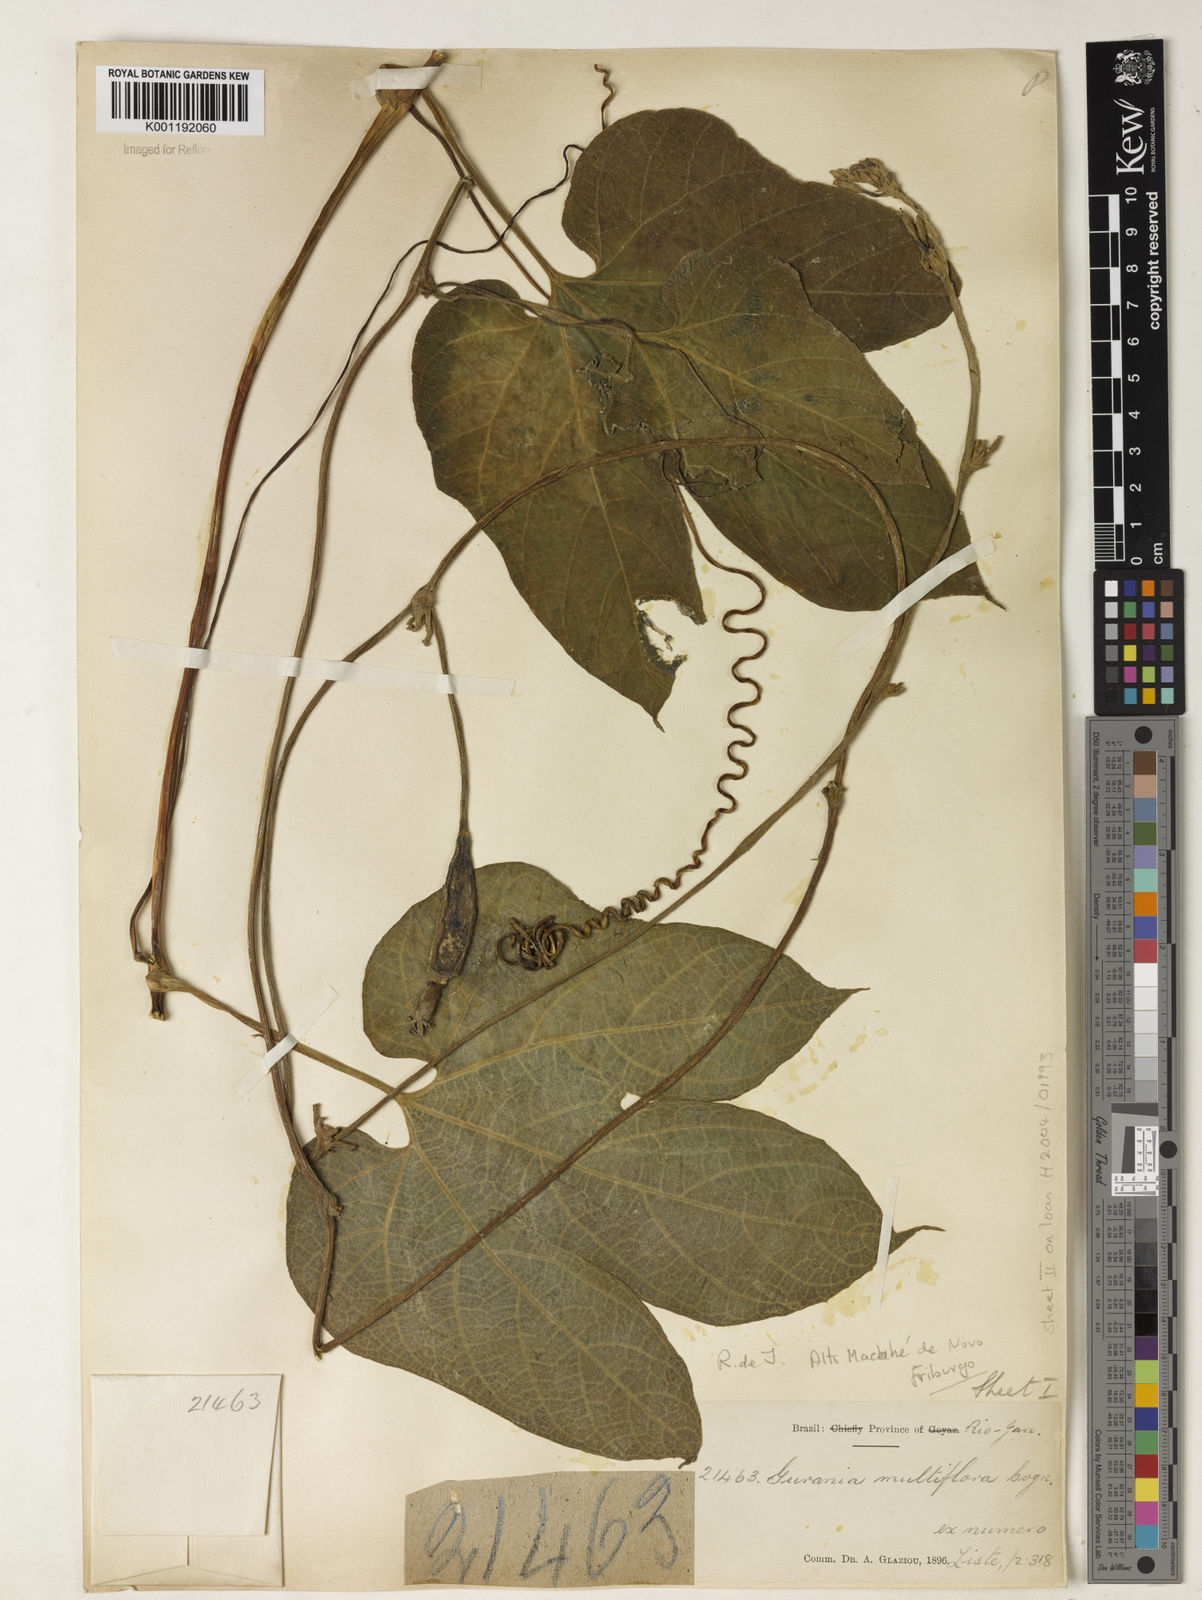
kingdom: Plantae
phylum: Tracheophyta
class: Magnoliopsida
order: Cucurbitales
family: Cucurbitaceae
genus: Gurania
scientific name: Gurania lobata
